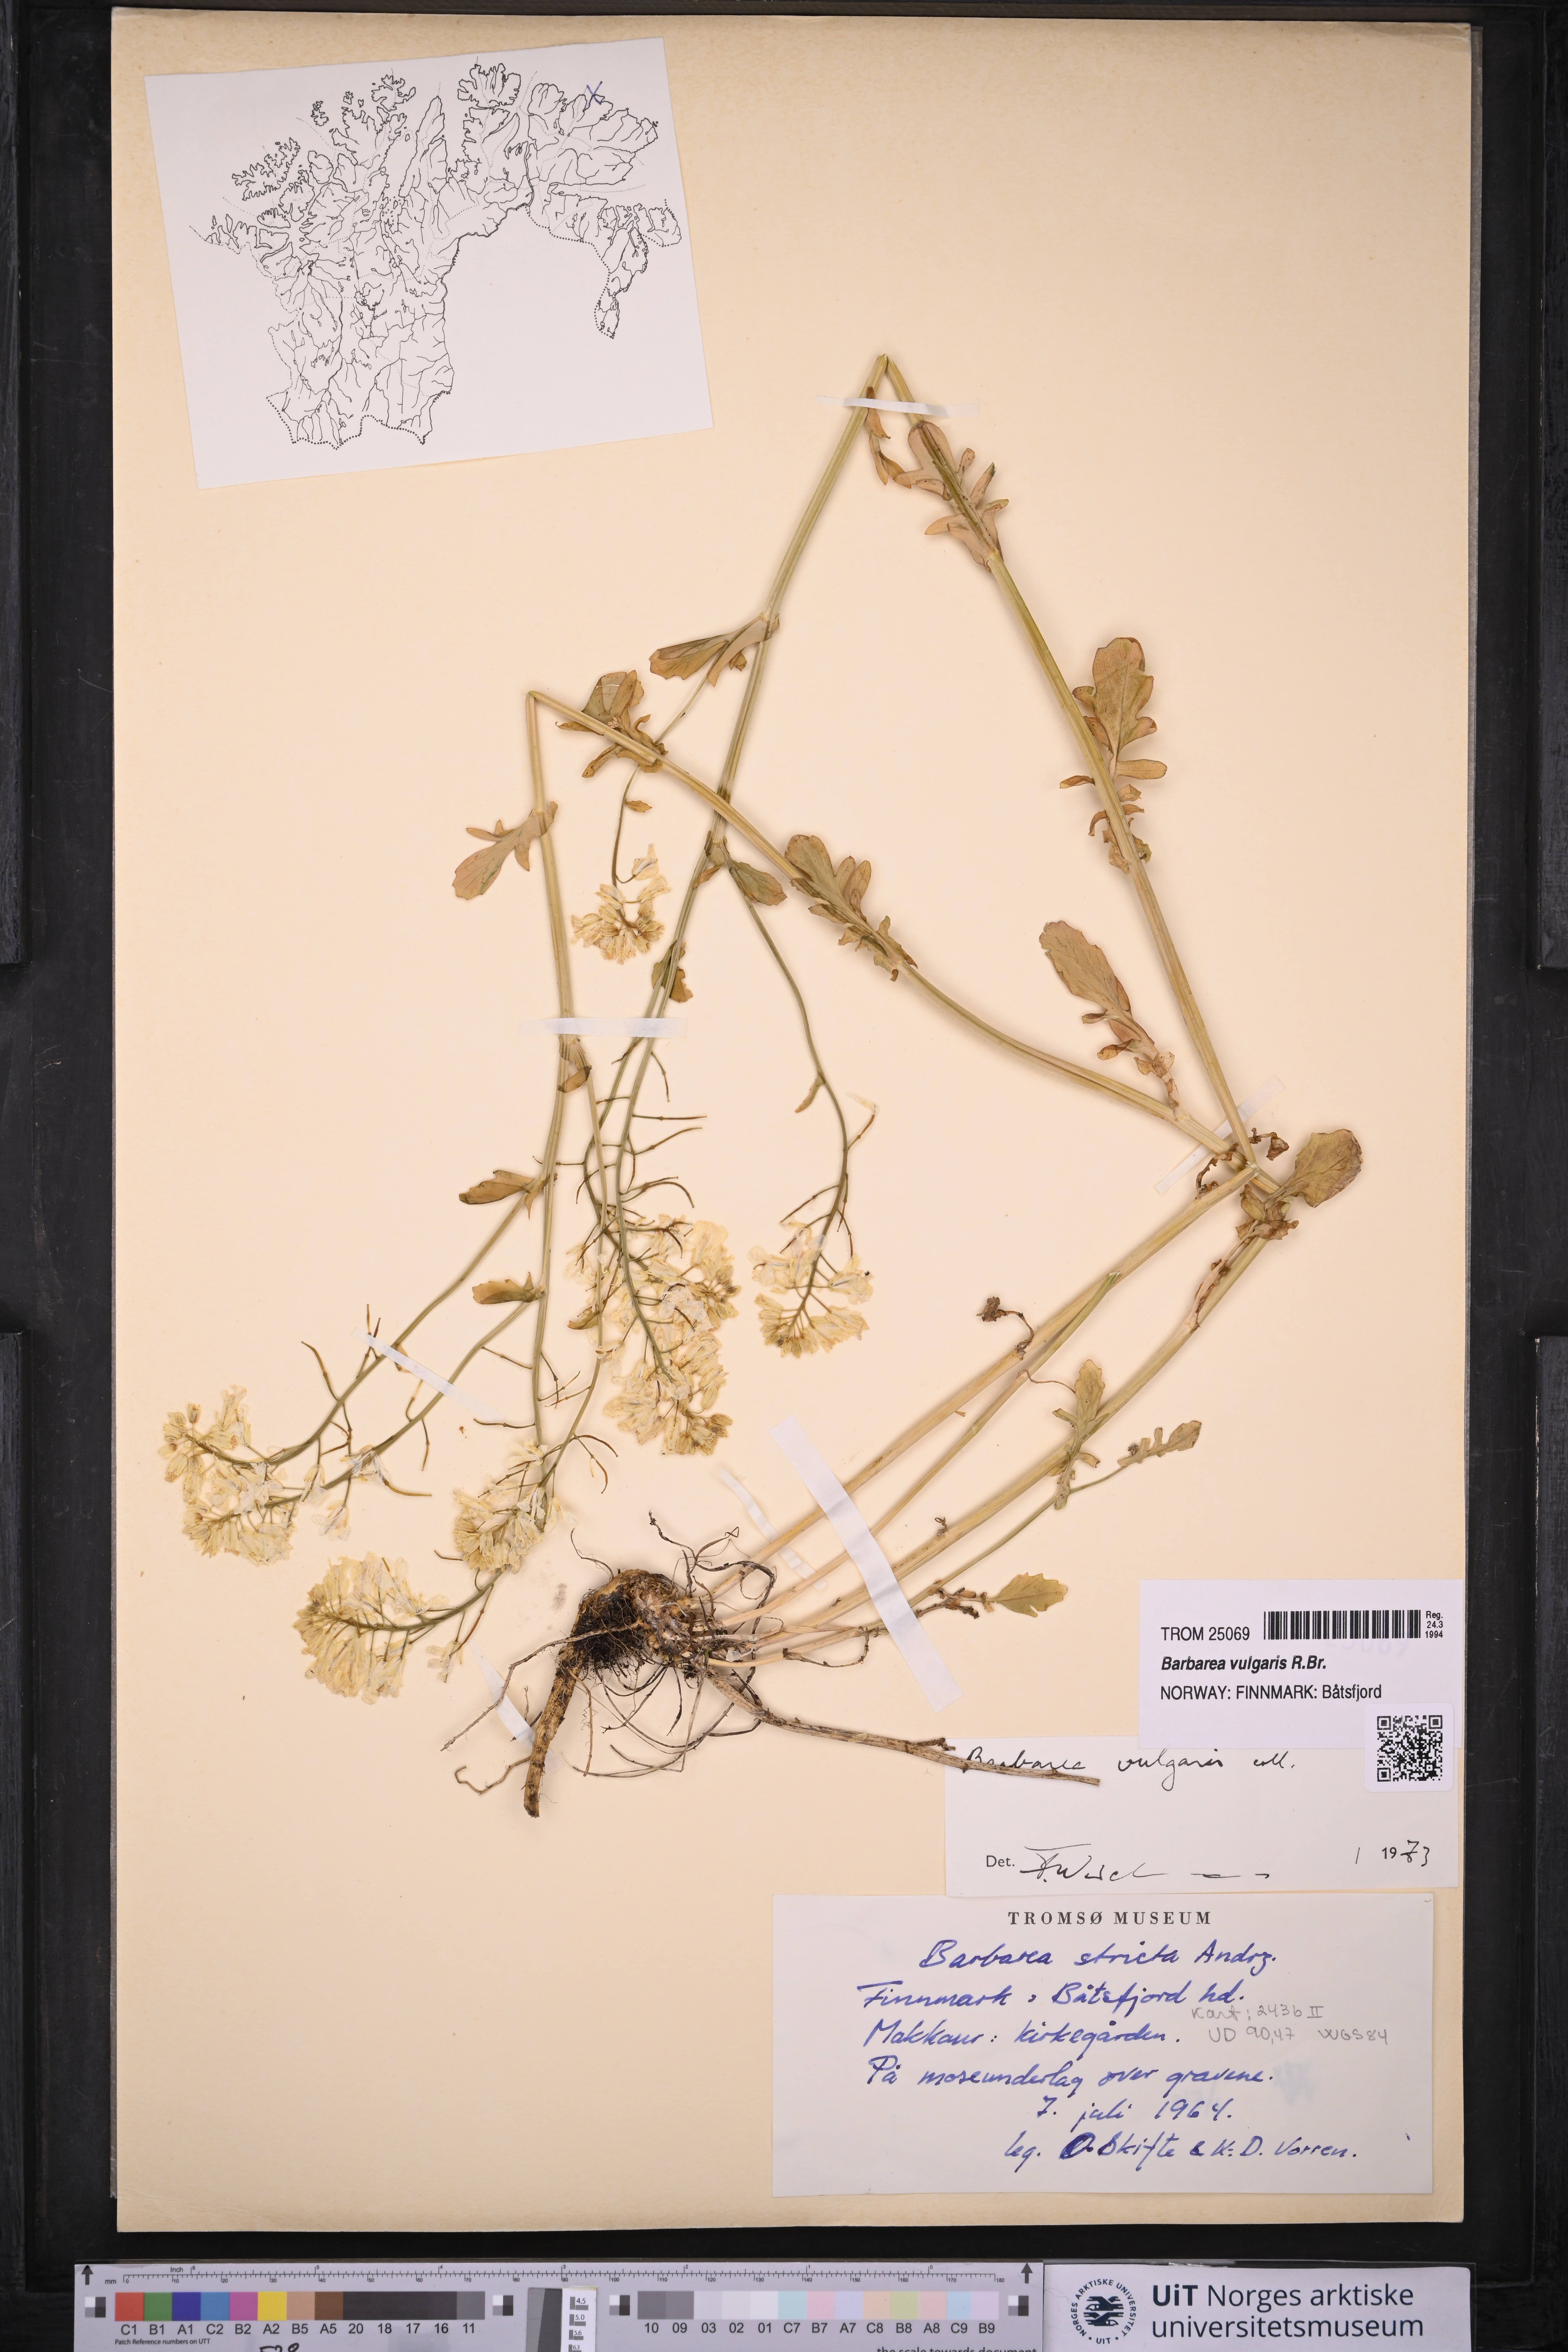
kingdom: Plantae
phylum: Tracheophyta
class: Magnoliopsida
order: Brassicales
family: Brassicaceae
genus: Barbarea
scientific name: Barbarea vulgaris
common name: Cressy-greens
